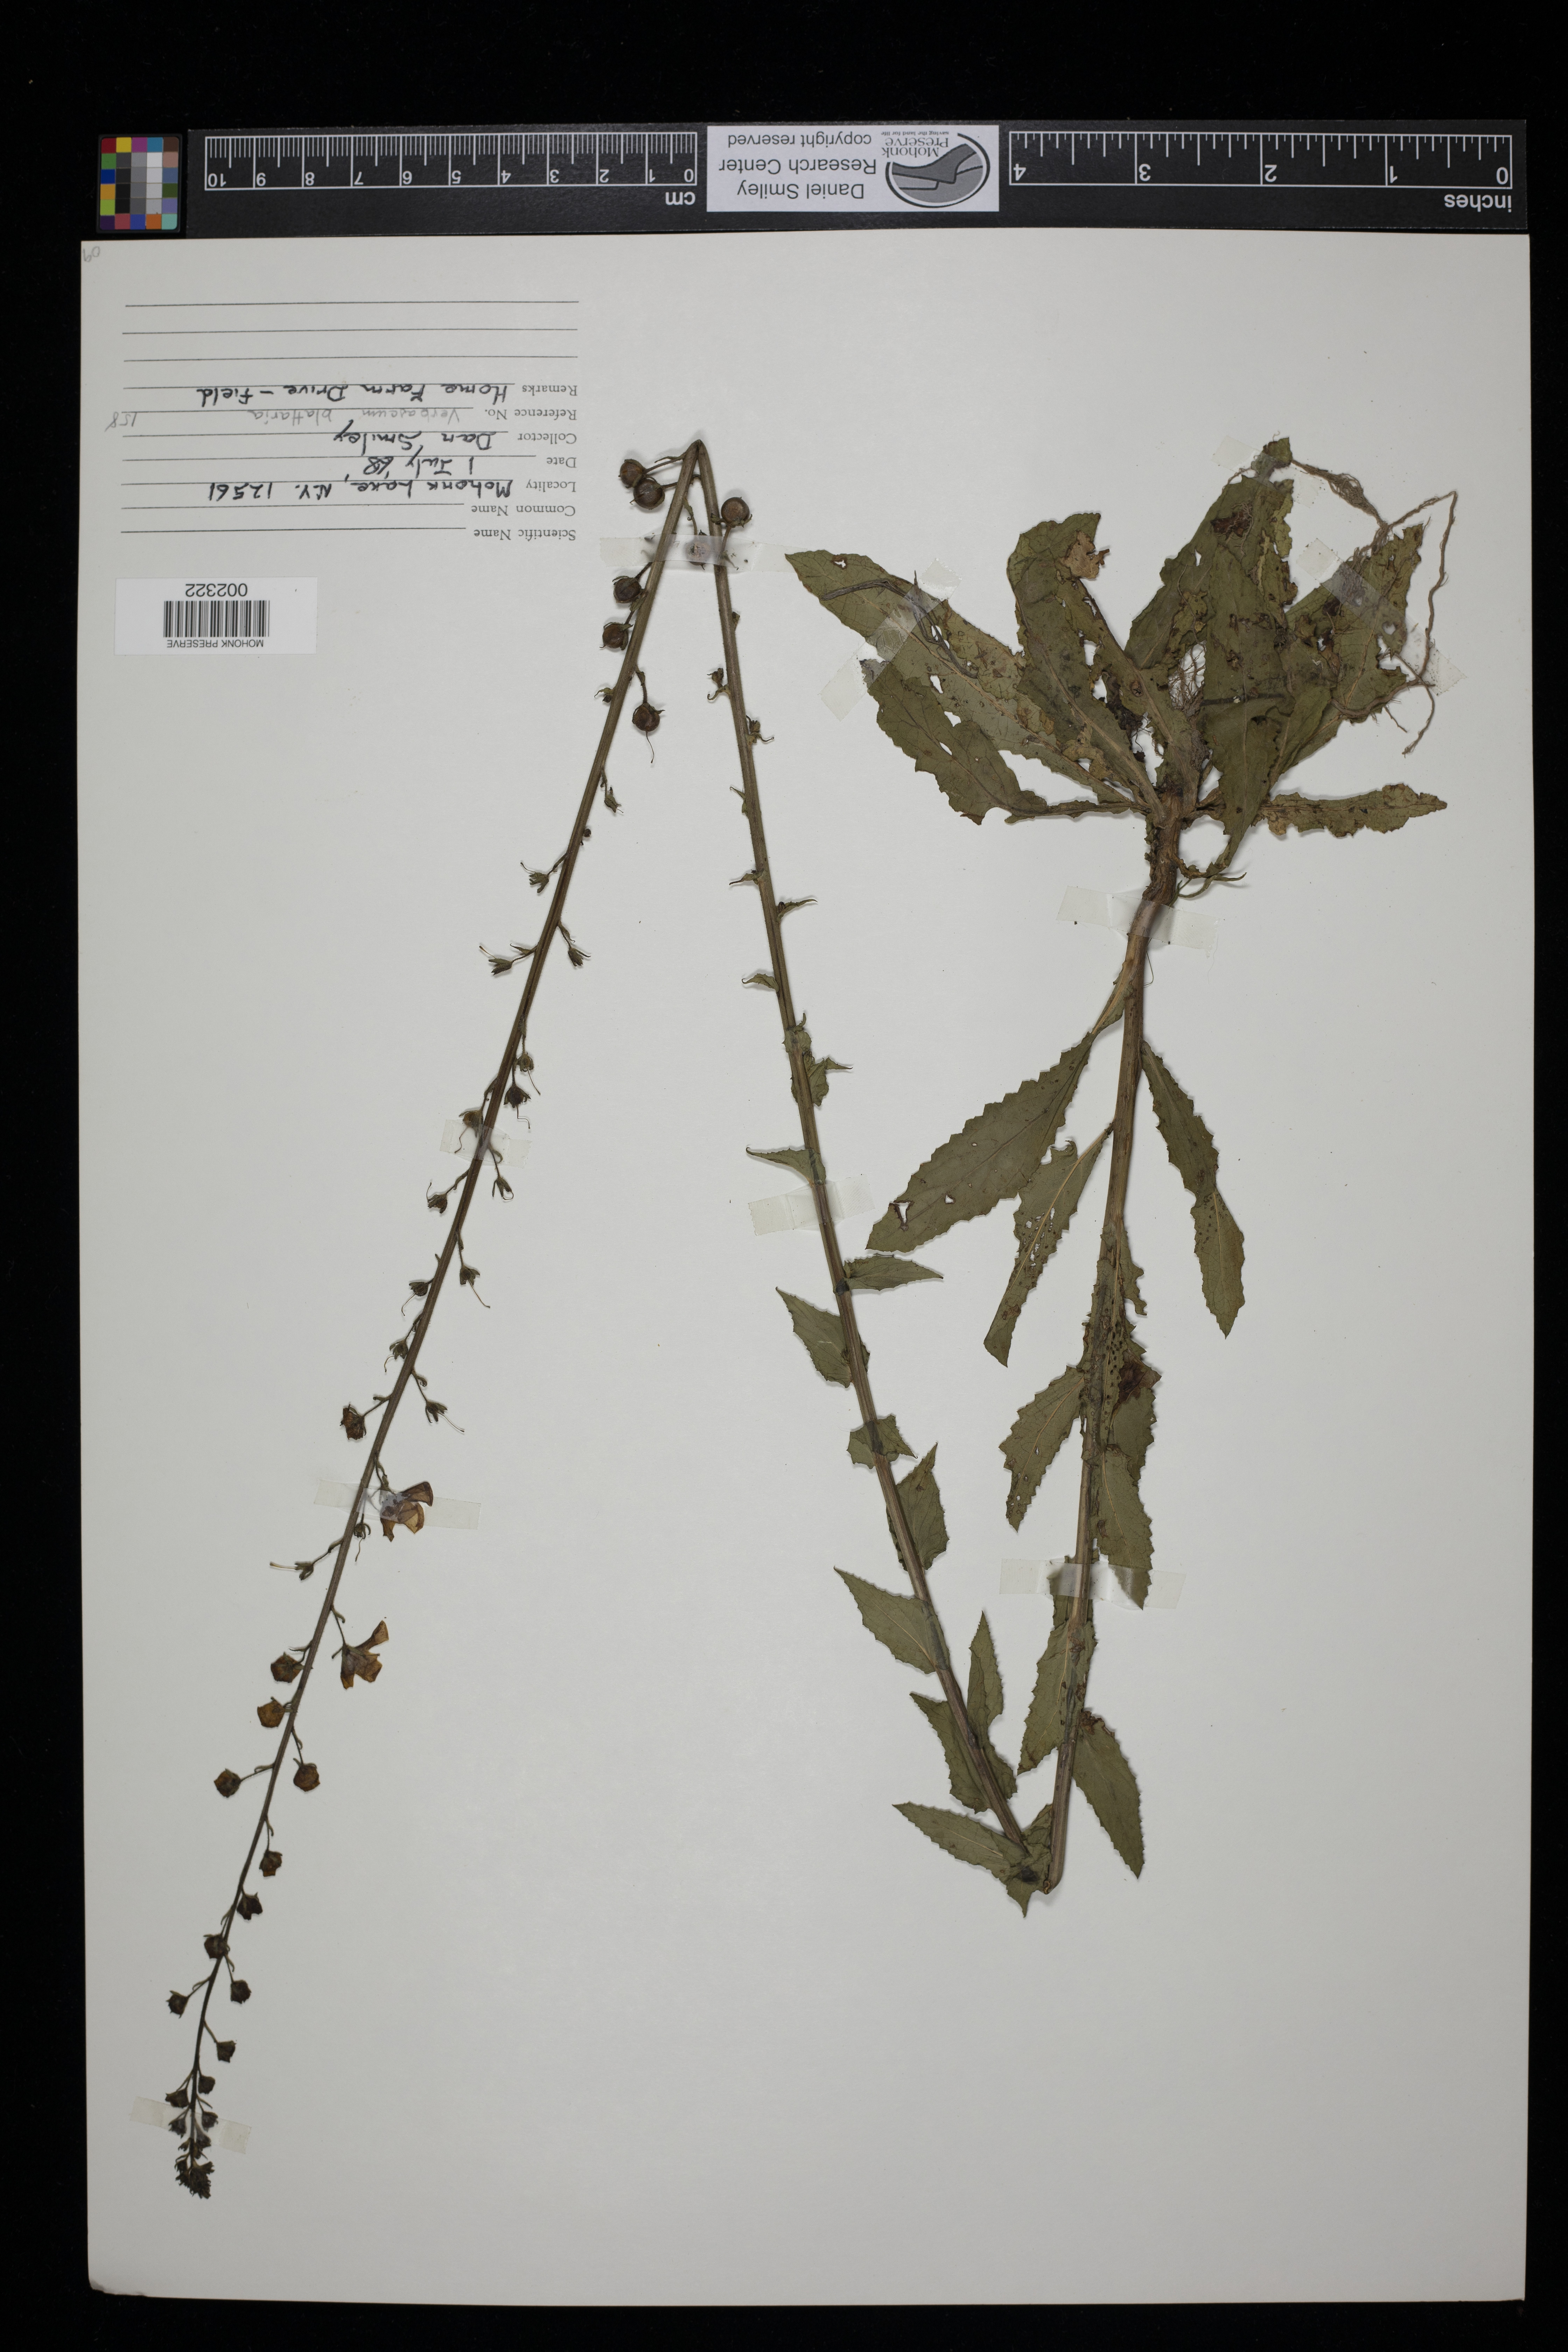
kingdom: Plantae
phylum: Tracheophyta
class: Magnoliopsida
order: Lamiales
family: Scrophulariaceae
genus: Verbascum
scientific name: Verbascum blattaria
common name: Moth mullein
